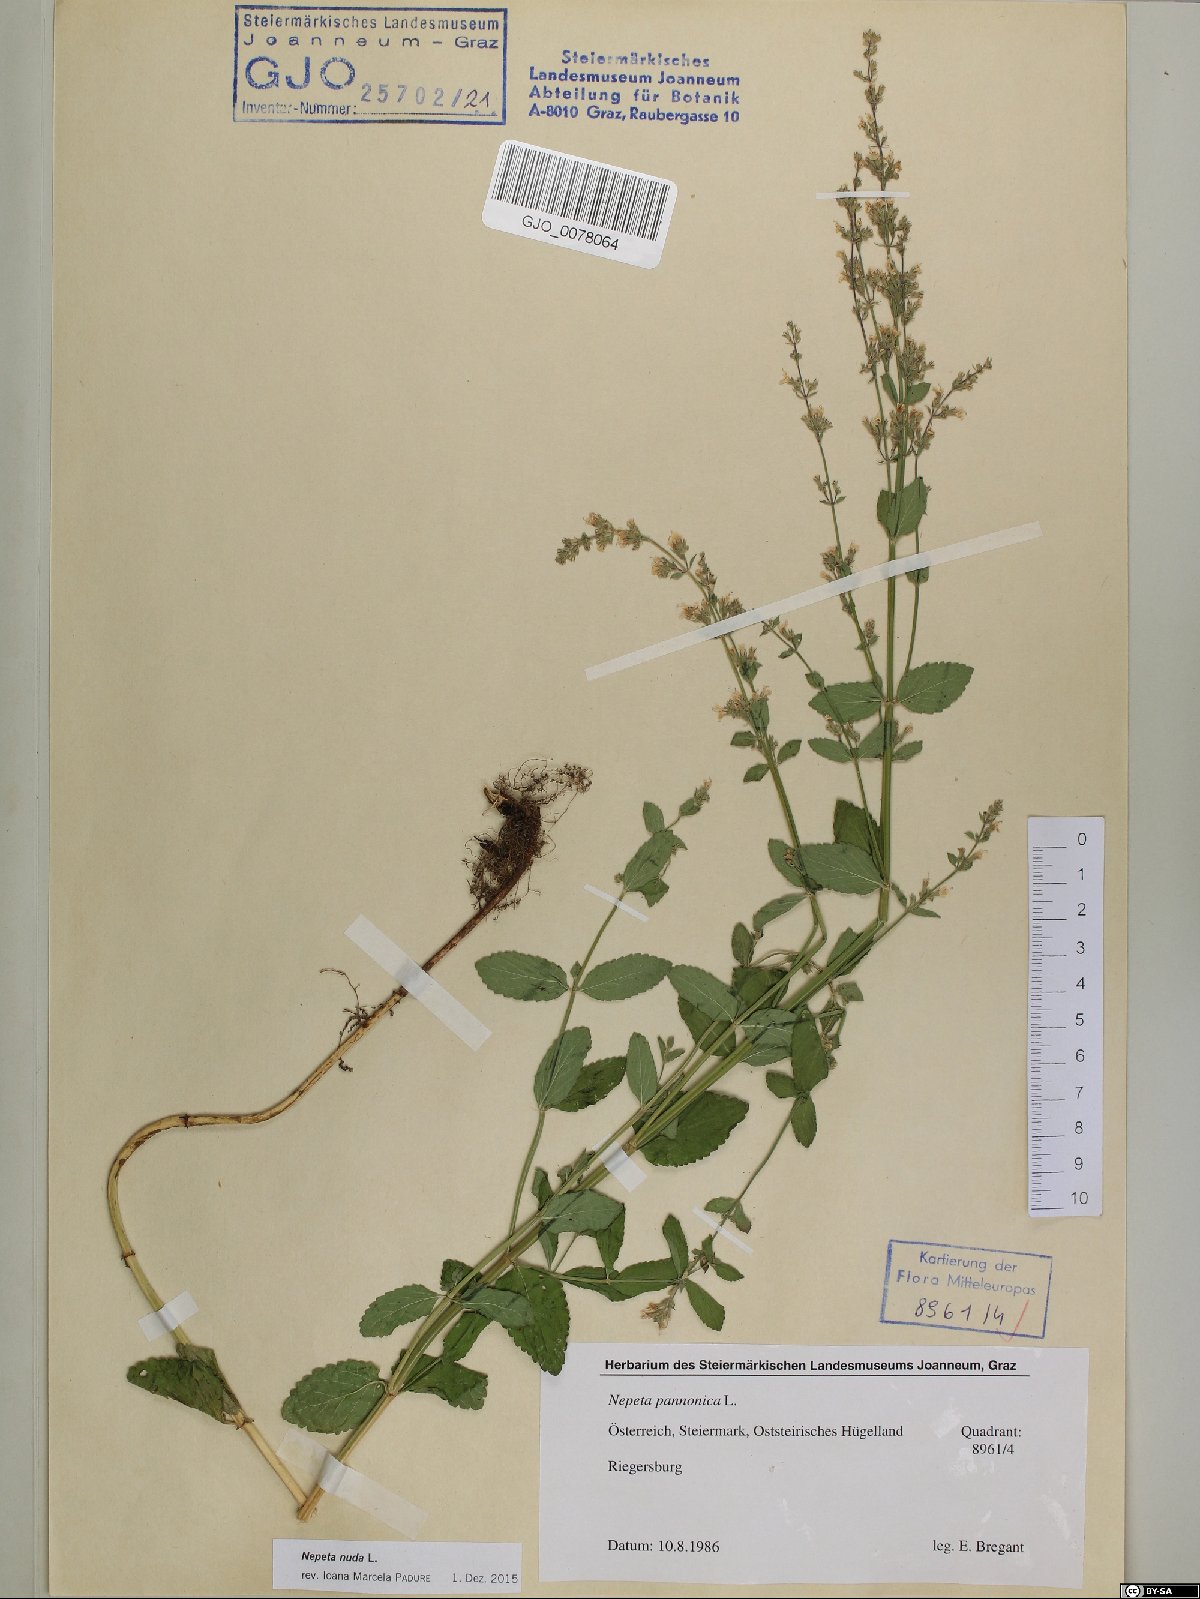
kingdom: Plantae
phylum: Tracheophyta
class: Magnoliopsida
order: Lamiales
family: Lamiaceae
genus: Nepeta
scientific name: Nepeta nuda
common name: Hairless catmint
